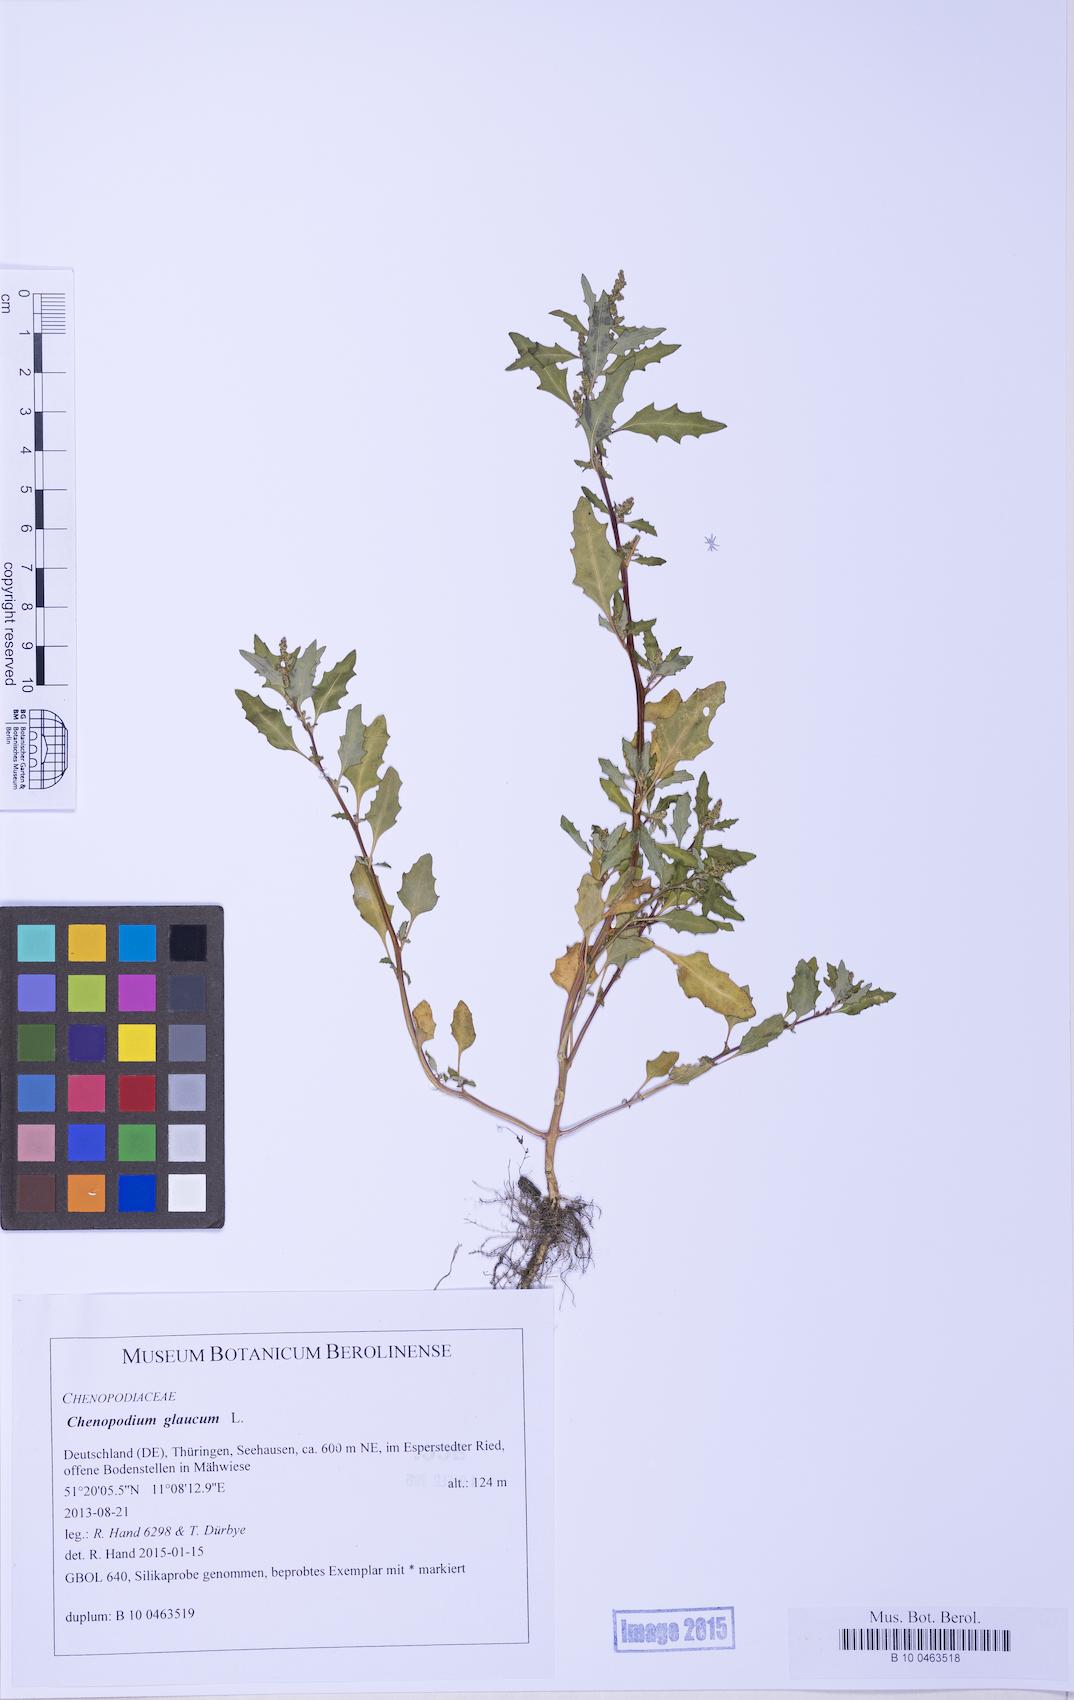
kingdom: Plantae
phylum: Tracheophyta
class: Magnoliopsida
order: Caryophyllales
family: Amaranthaceae
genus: Oxybasis
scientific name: Oxybasis glauca
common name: Glaucous goosefoot
